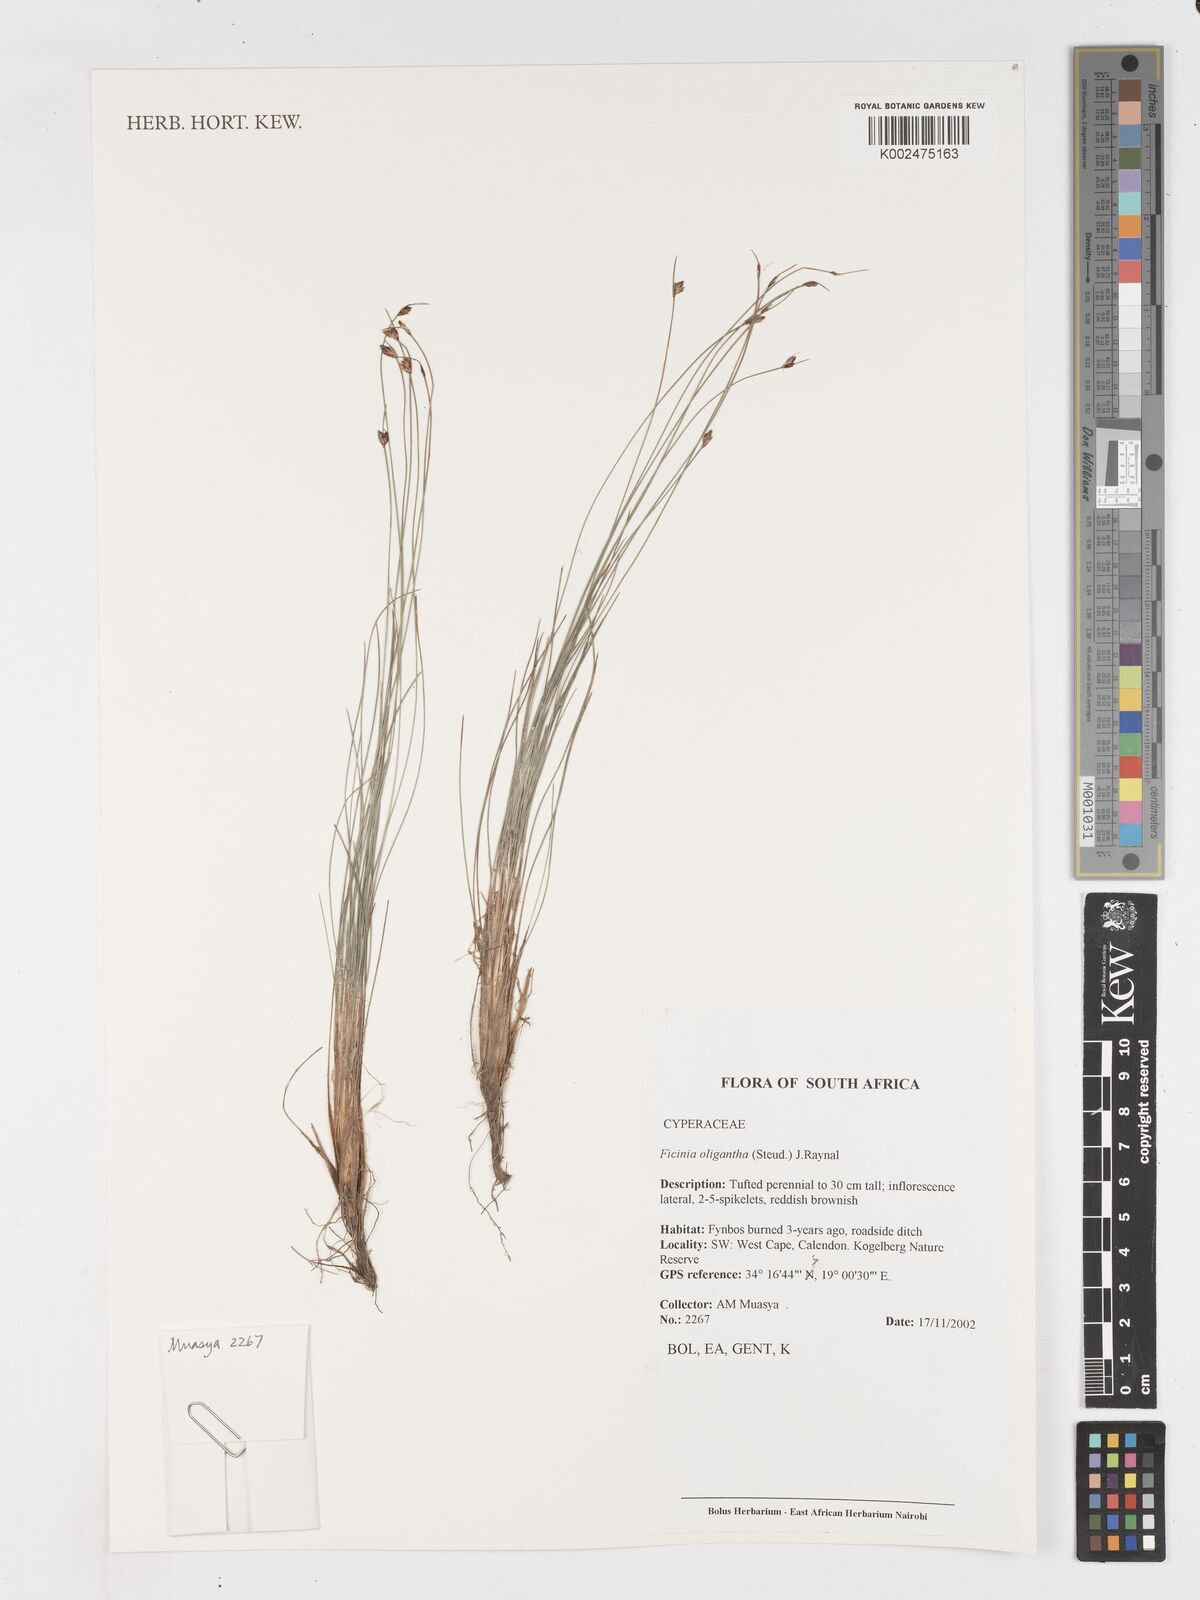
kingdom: Plantae
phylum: Tracheophyta
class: Liliopsida
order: Poales
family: Cyperaceae
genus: Ficinia
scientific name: Ficinia stolonifera
